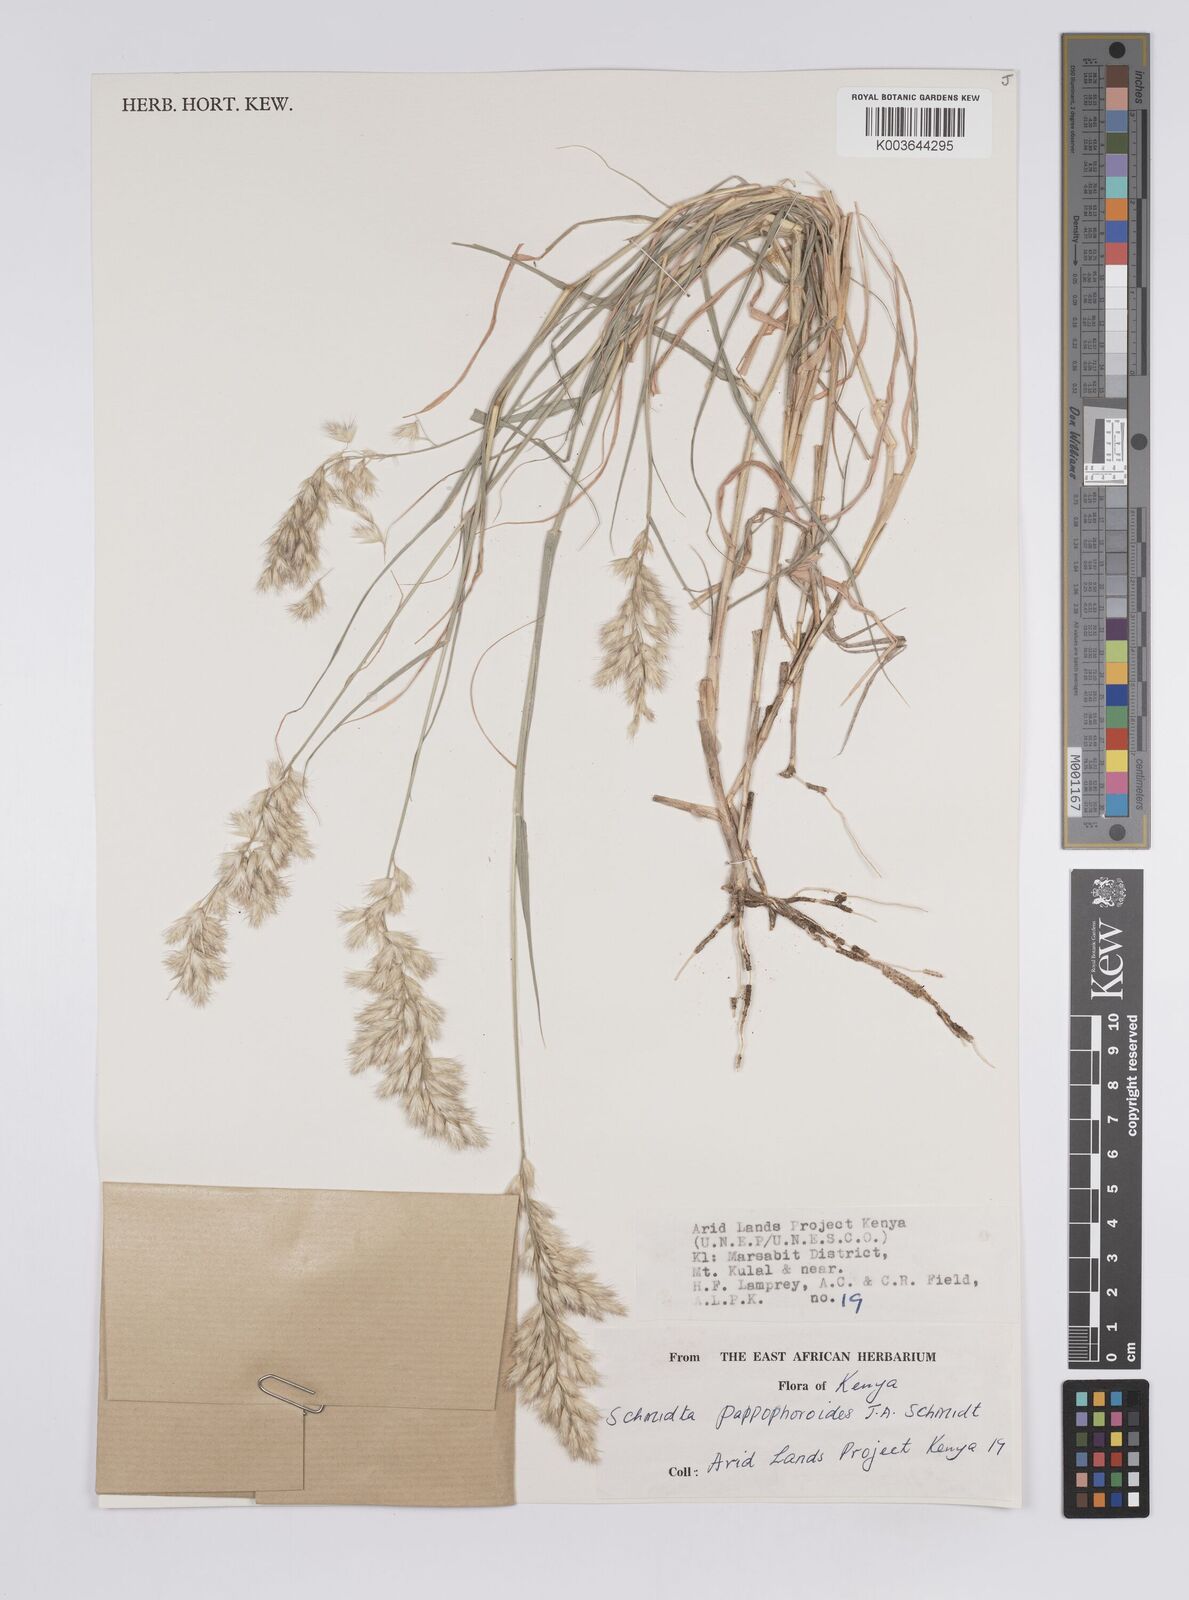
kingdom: Plantae
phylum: Tracheophyta
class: Liliopsida
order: Poales
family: Poaceae
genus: Schmidtia
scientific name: Schmidtia pappophoroides
